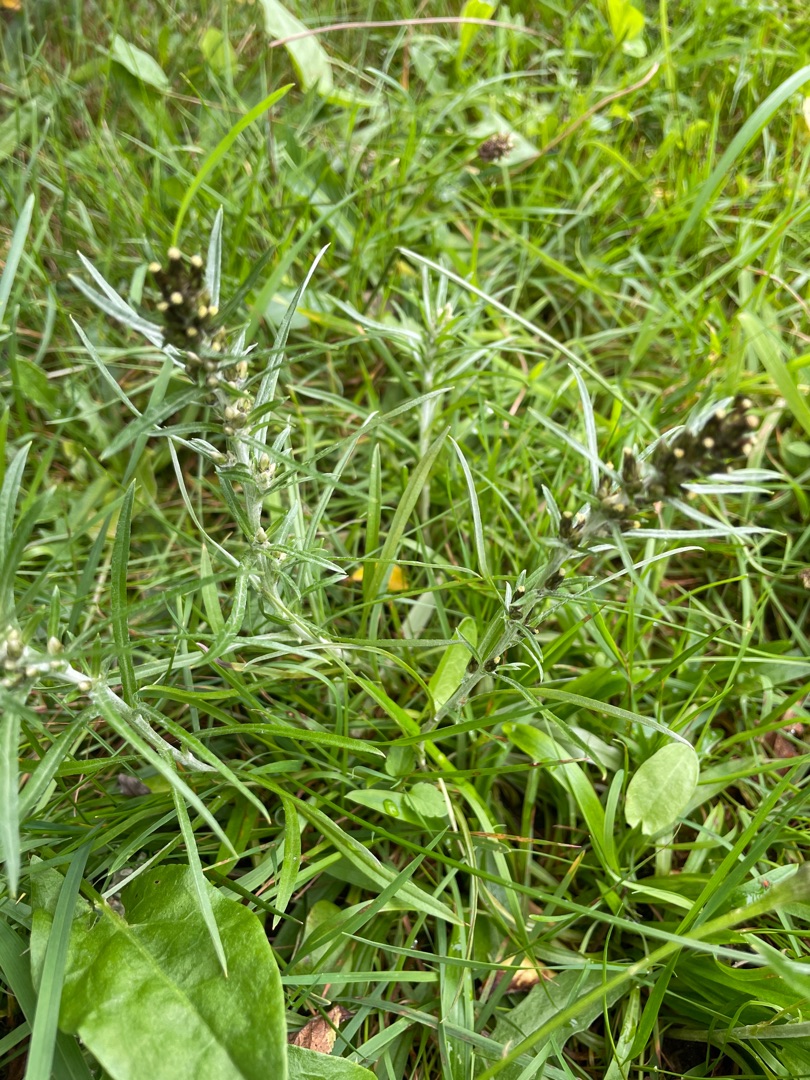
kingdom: Plantae
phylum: Tracheophyta
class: Magnoliopsida
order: Asterales
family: Asteraceae
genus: Omalotheca
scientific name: Omalotheca sylvatica
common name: Rank evighedsblomst
